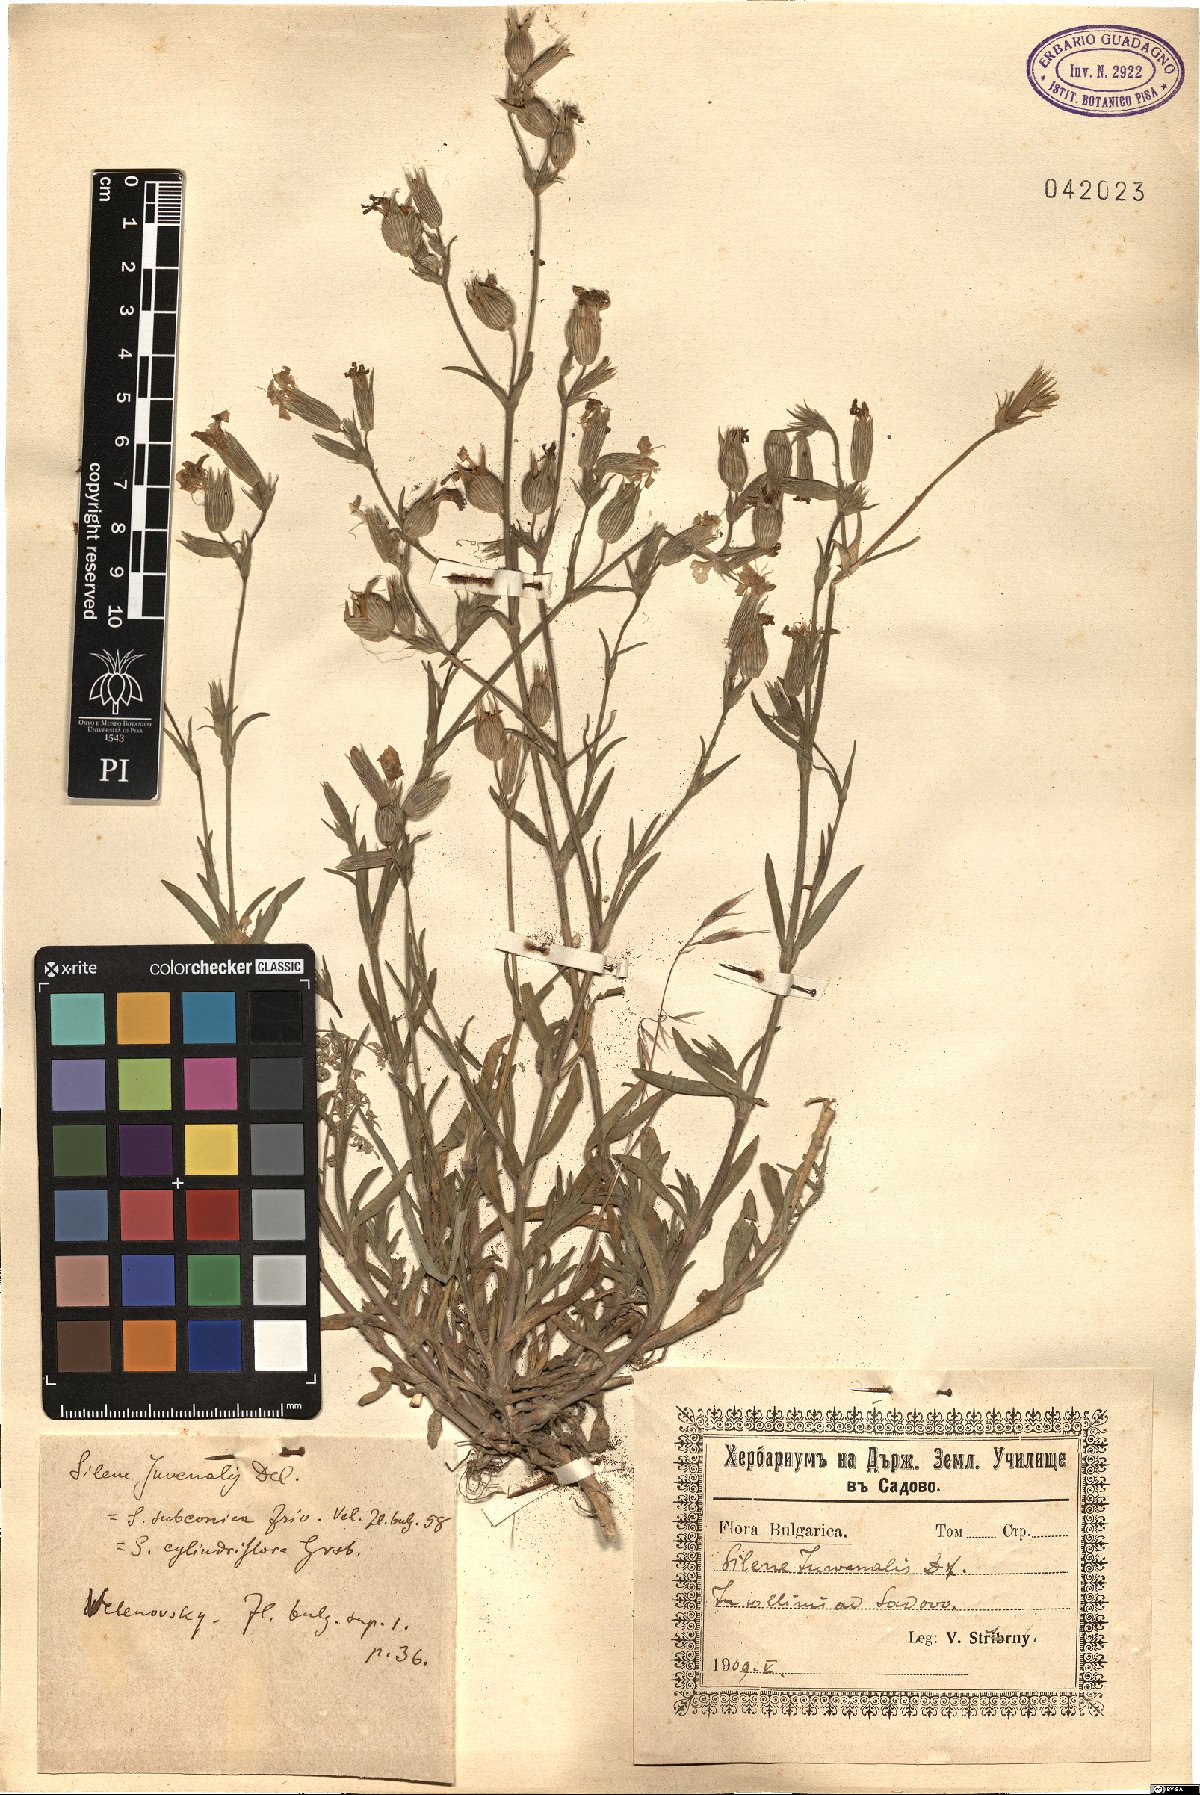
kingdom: Plantae
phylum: Tracheophyta
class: Magnoliopsida
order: Caryophyllales
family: Caryophyllaceae
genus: Silene
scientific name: Silene subconica
